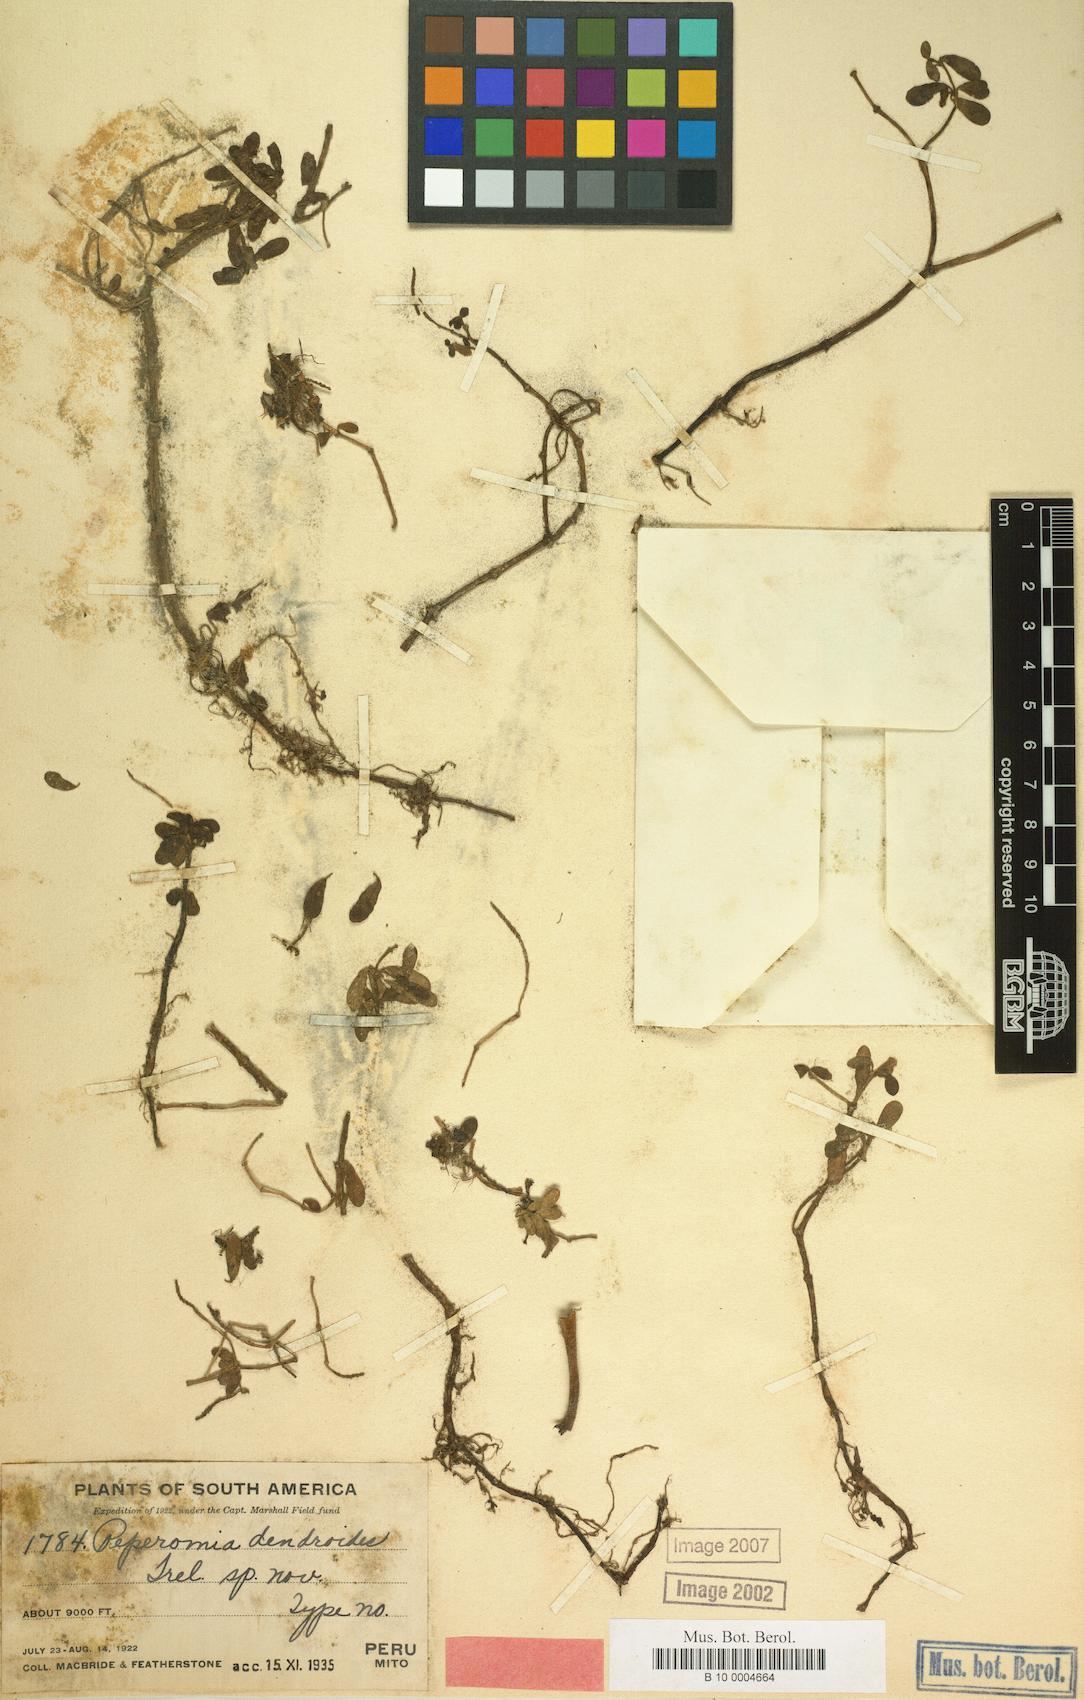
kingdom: Plantae
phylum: Tracheophyta
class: Magnoliopsida
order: Piperales
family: Piperaceae
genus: Peperomia
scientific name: Peperomia galioides
